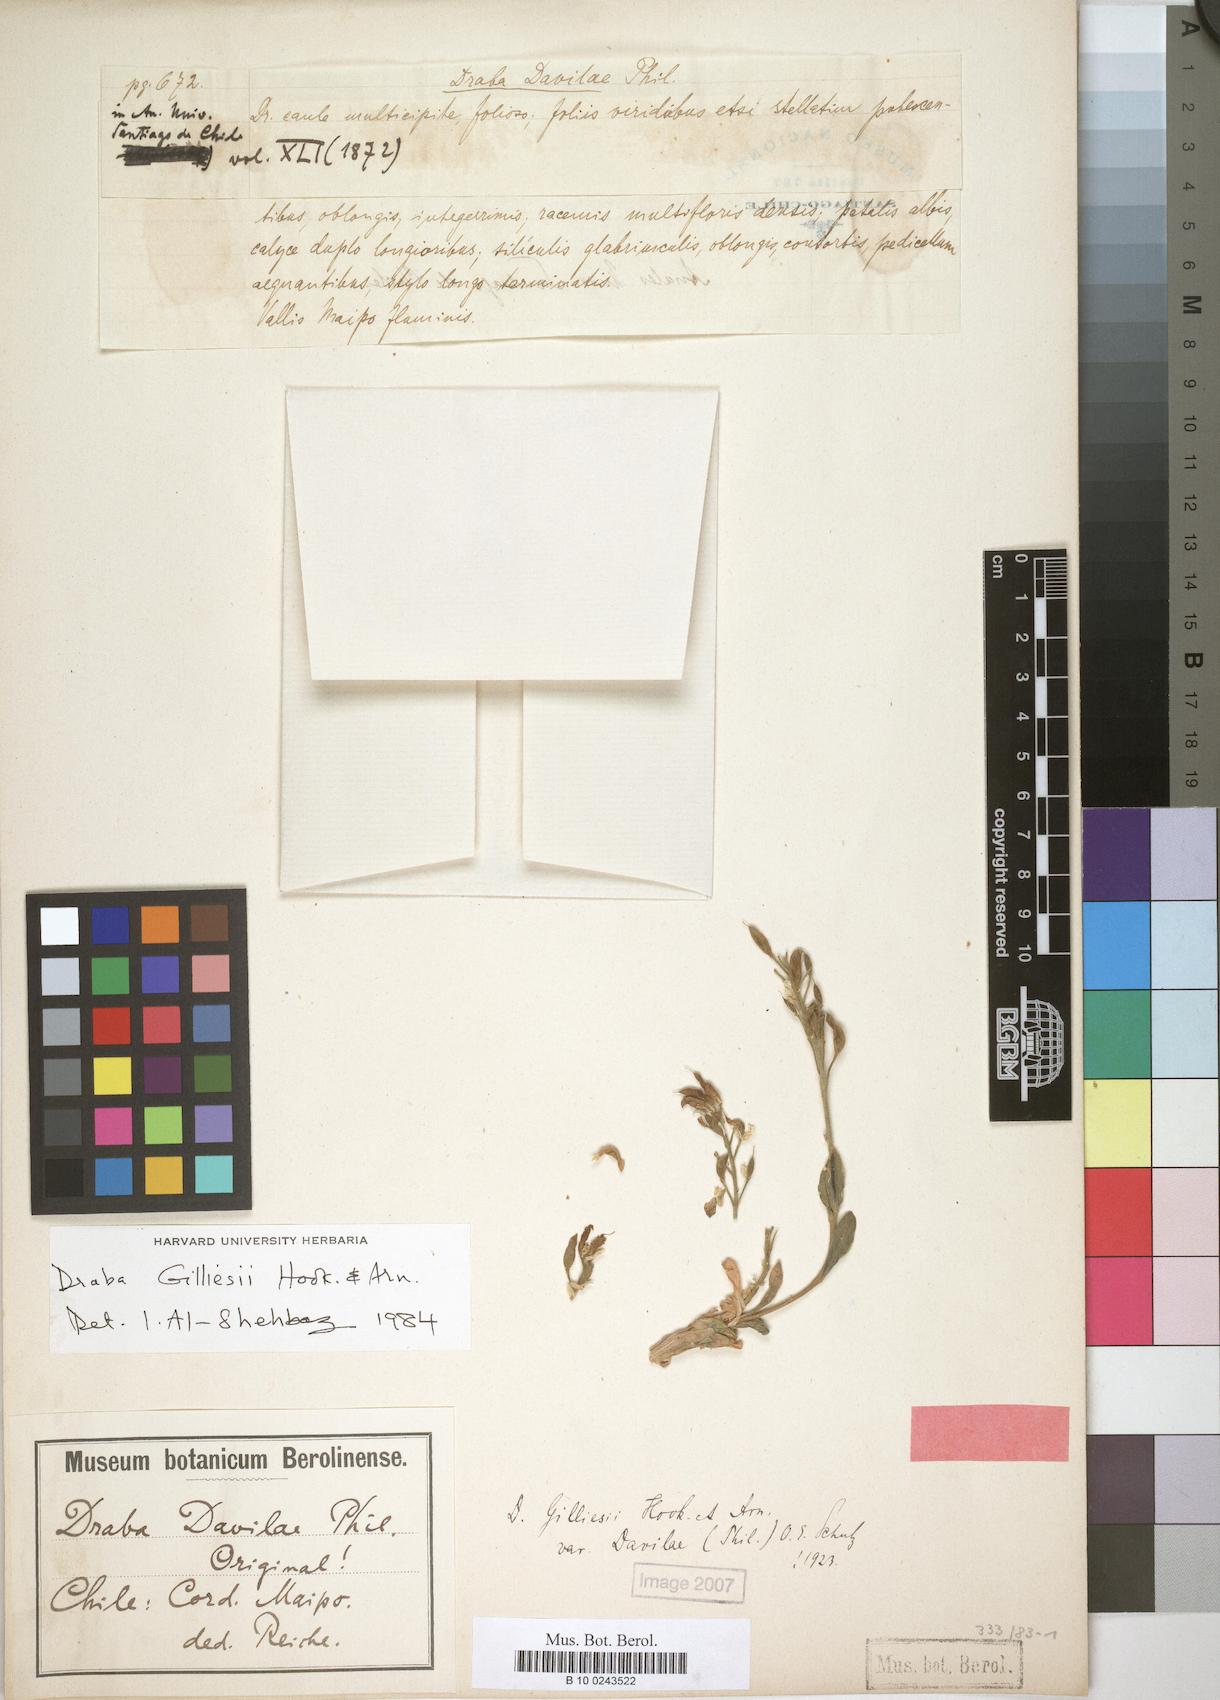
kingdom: Plantae
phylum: Tracheophyta
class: Magnoliopsida
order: Brassicales
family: Brassicaceae
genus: Draba
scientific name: Draba gilliesii
